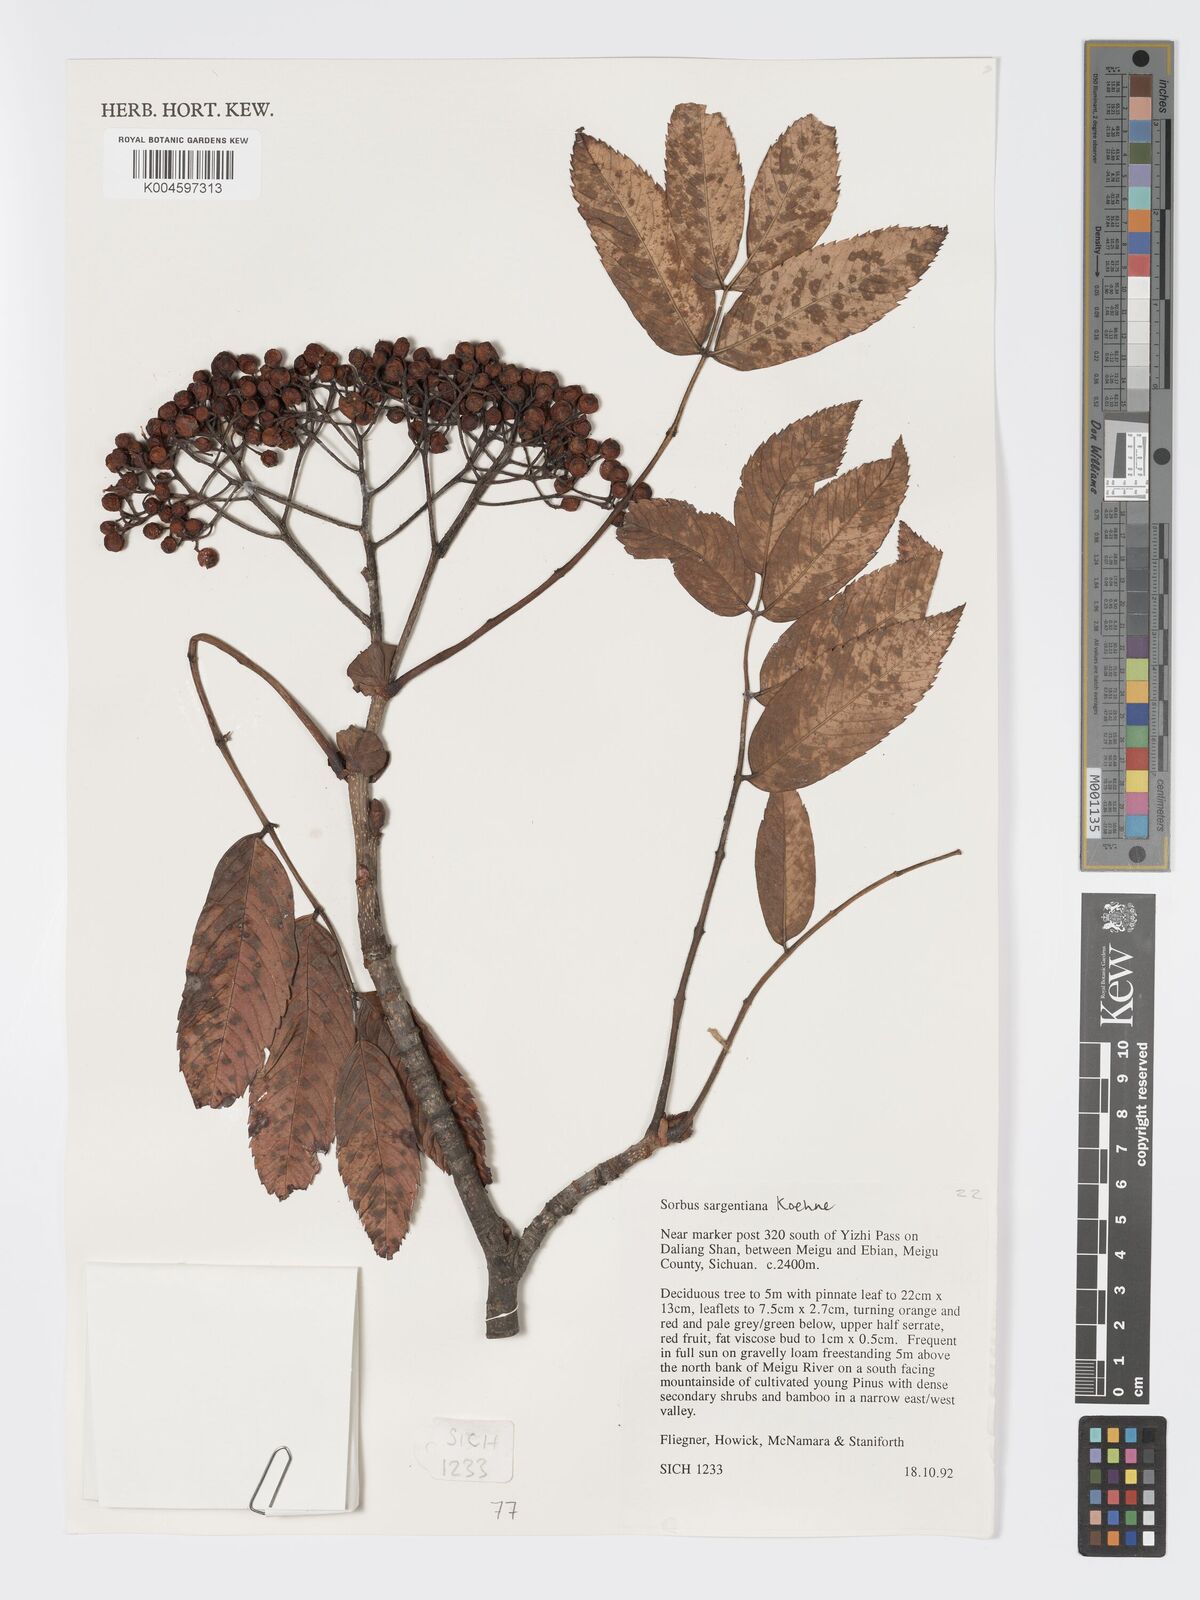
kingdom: Plantae
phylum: Tracheophyta
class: Magnoliopsida
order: Rosales
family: Rosaceae
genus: Sorbus
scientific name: Sorbus sargentiana
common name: Sargent's rowan
